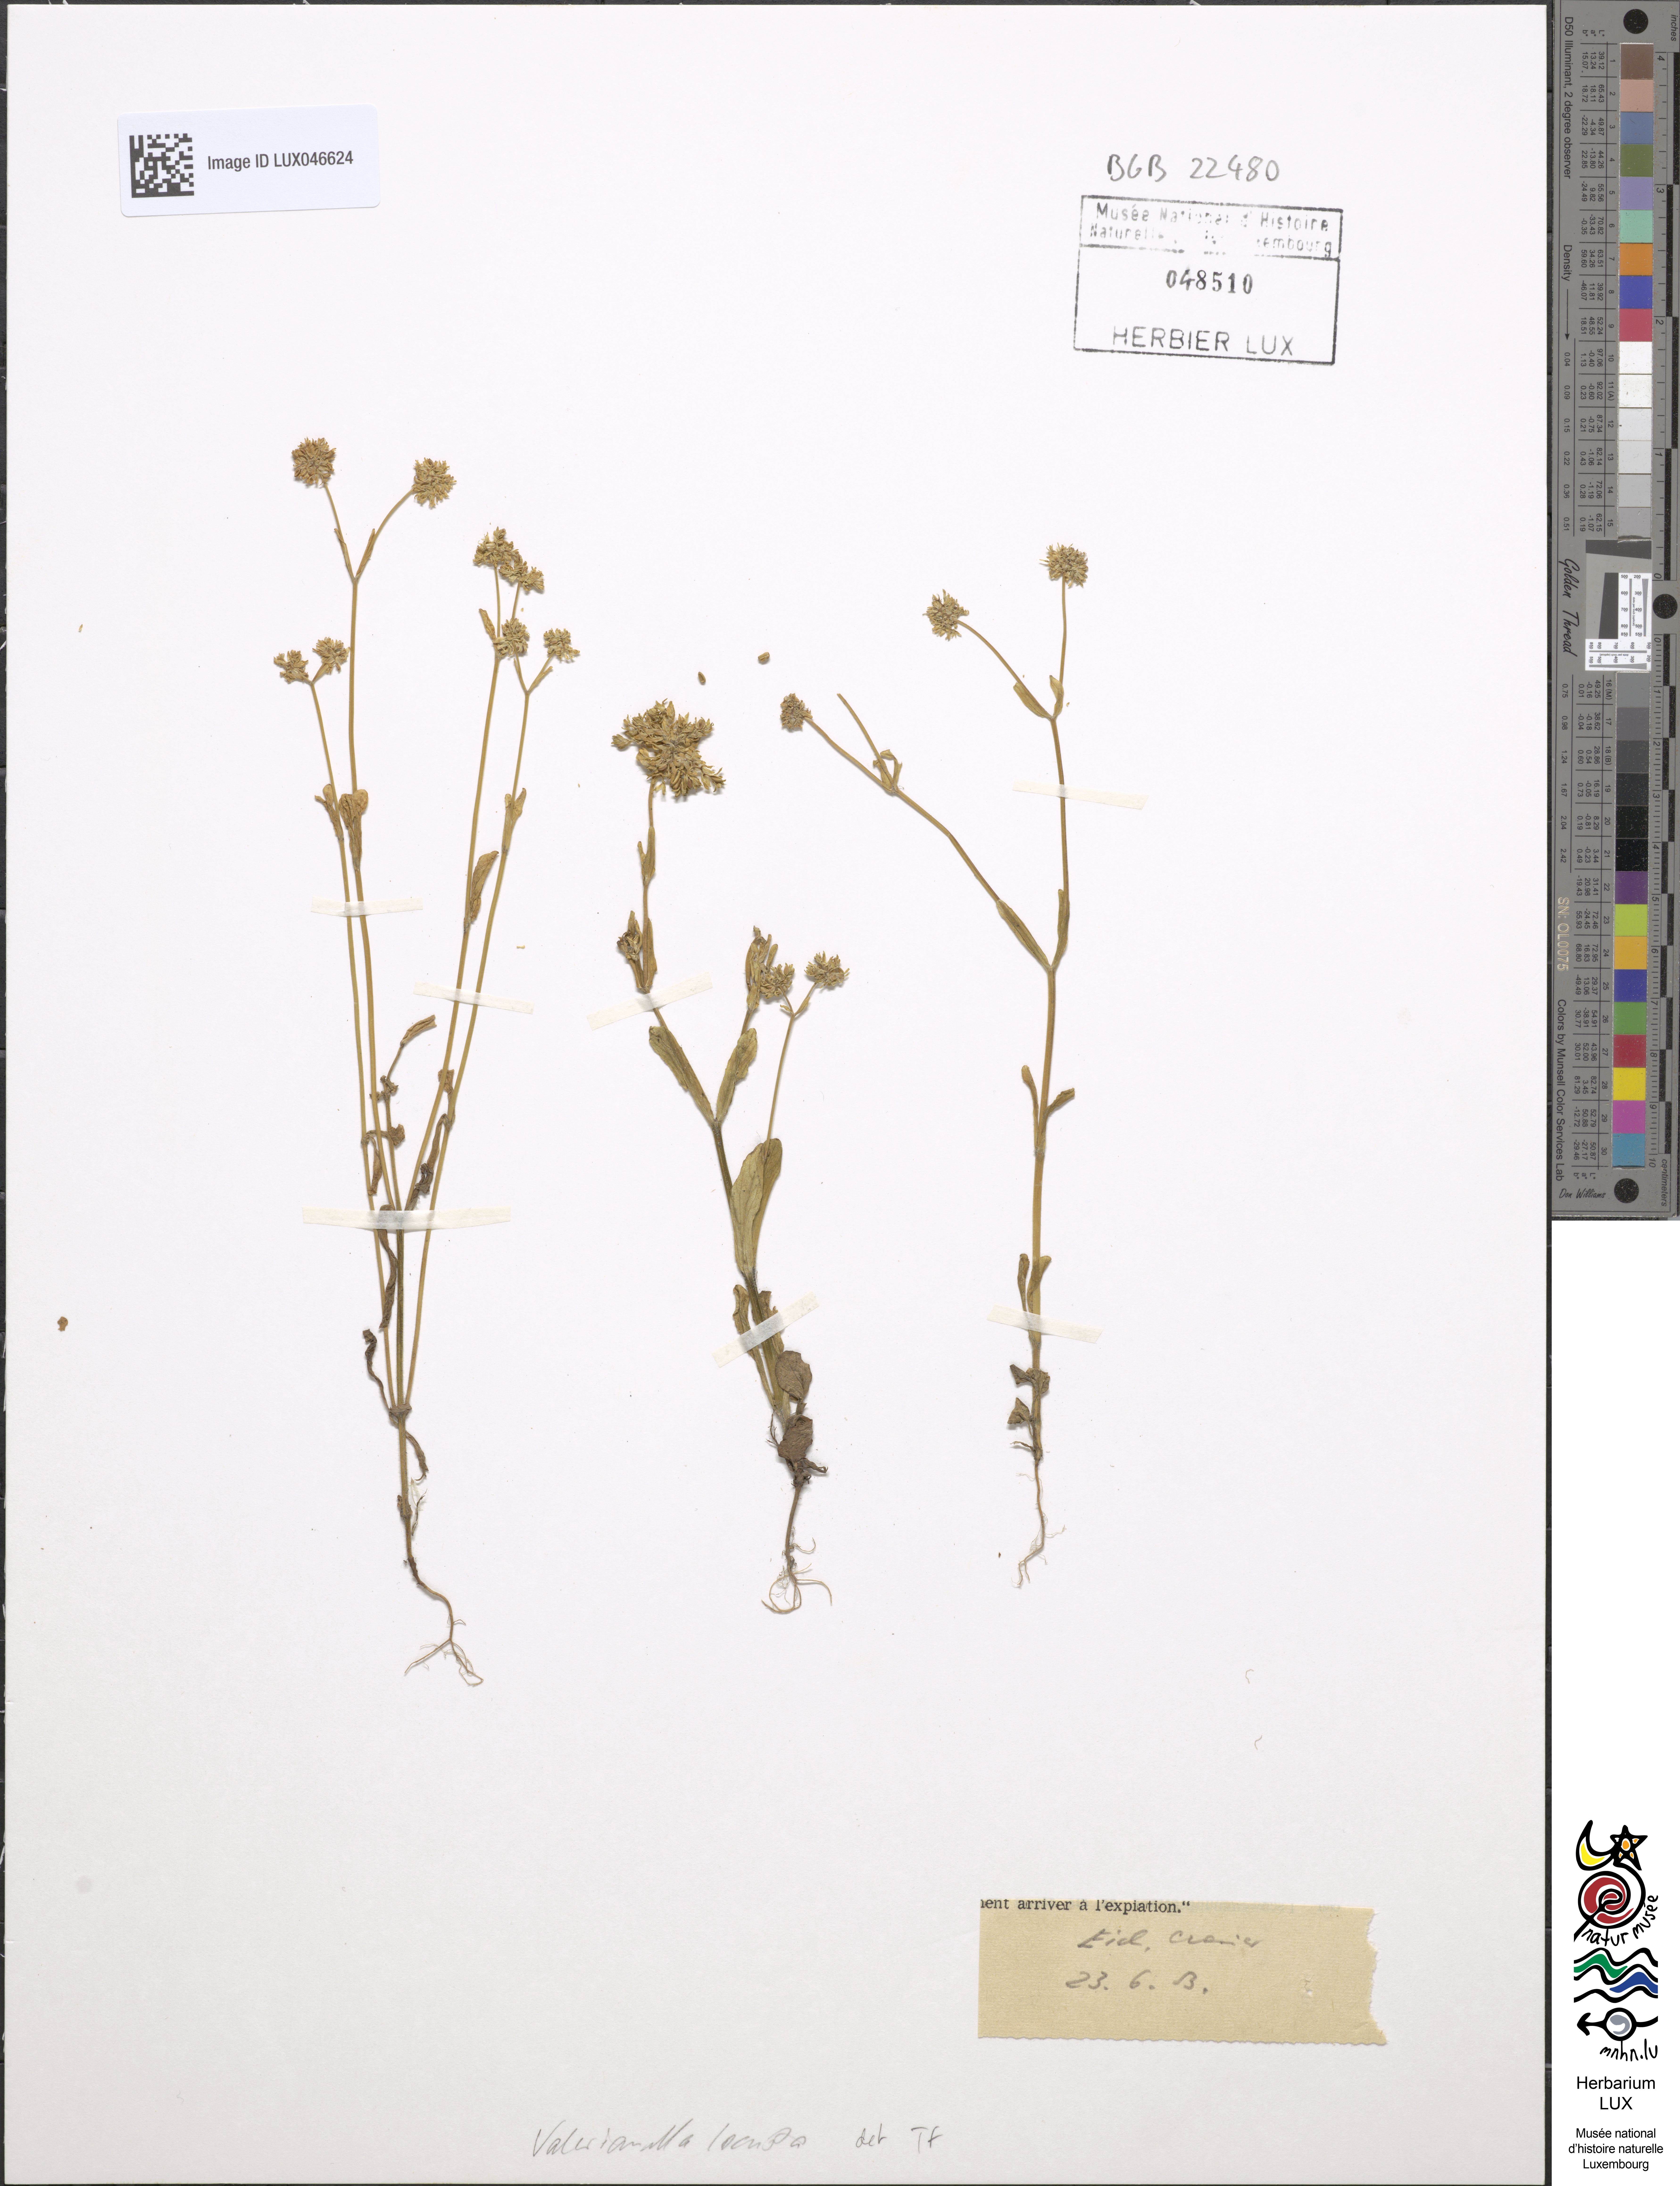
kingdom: Plantae
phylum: Tracheophyta
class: Magnoliopsida
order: Dipsacales
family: Caprifoliaceae
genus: Valerianella
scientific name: Valerianella locusta
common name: Common cornsalad
